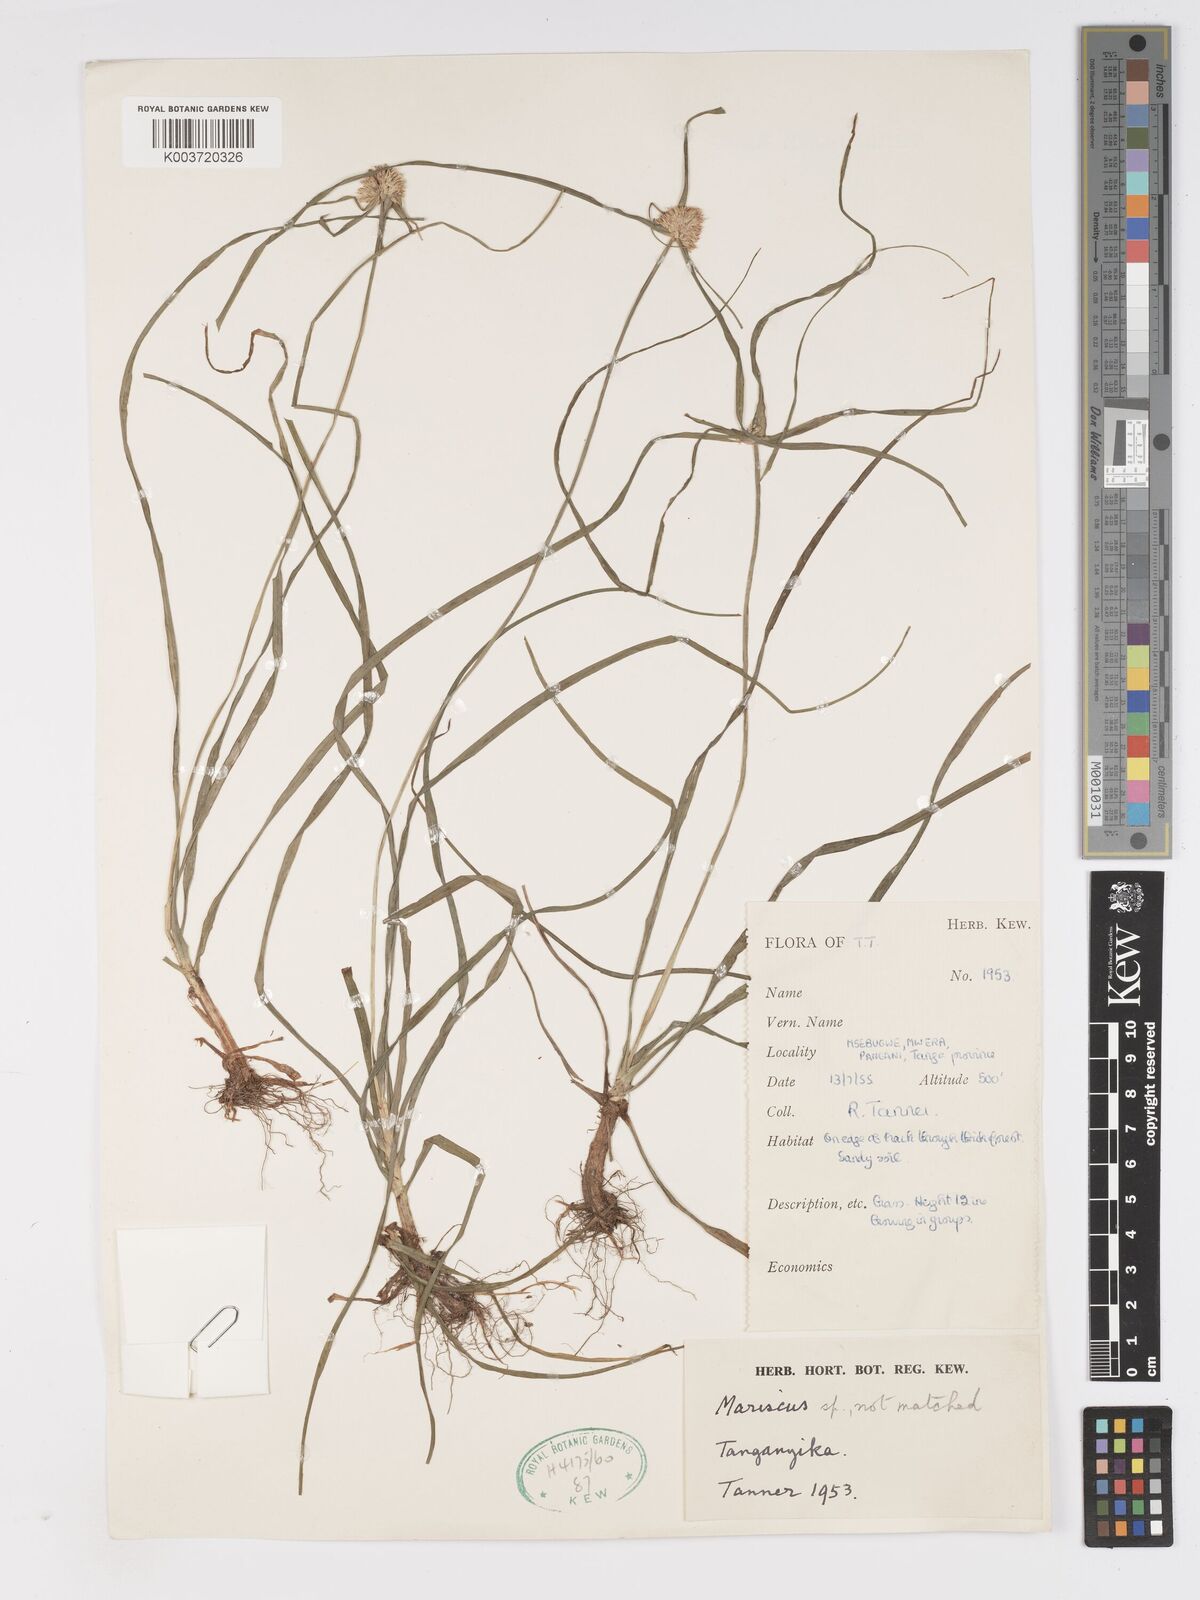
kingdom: Plantae
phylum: Tracheophyta
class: Liliopsida
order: Poales
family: Cyperaceae
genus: Cyperus
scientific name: Cyperus
